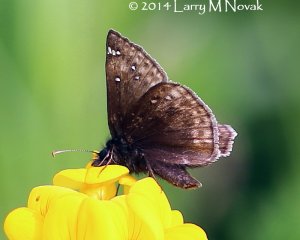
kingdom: Animalia
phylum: Arthropoda
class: Insecta
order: Lepidoptera
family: Hesperiidae
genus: Erynnis
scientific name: Erynnis
